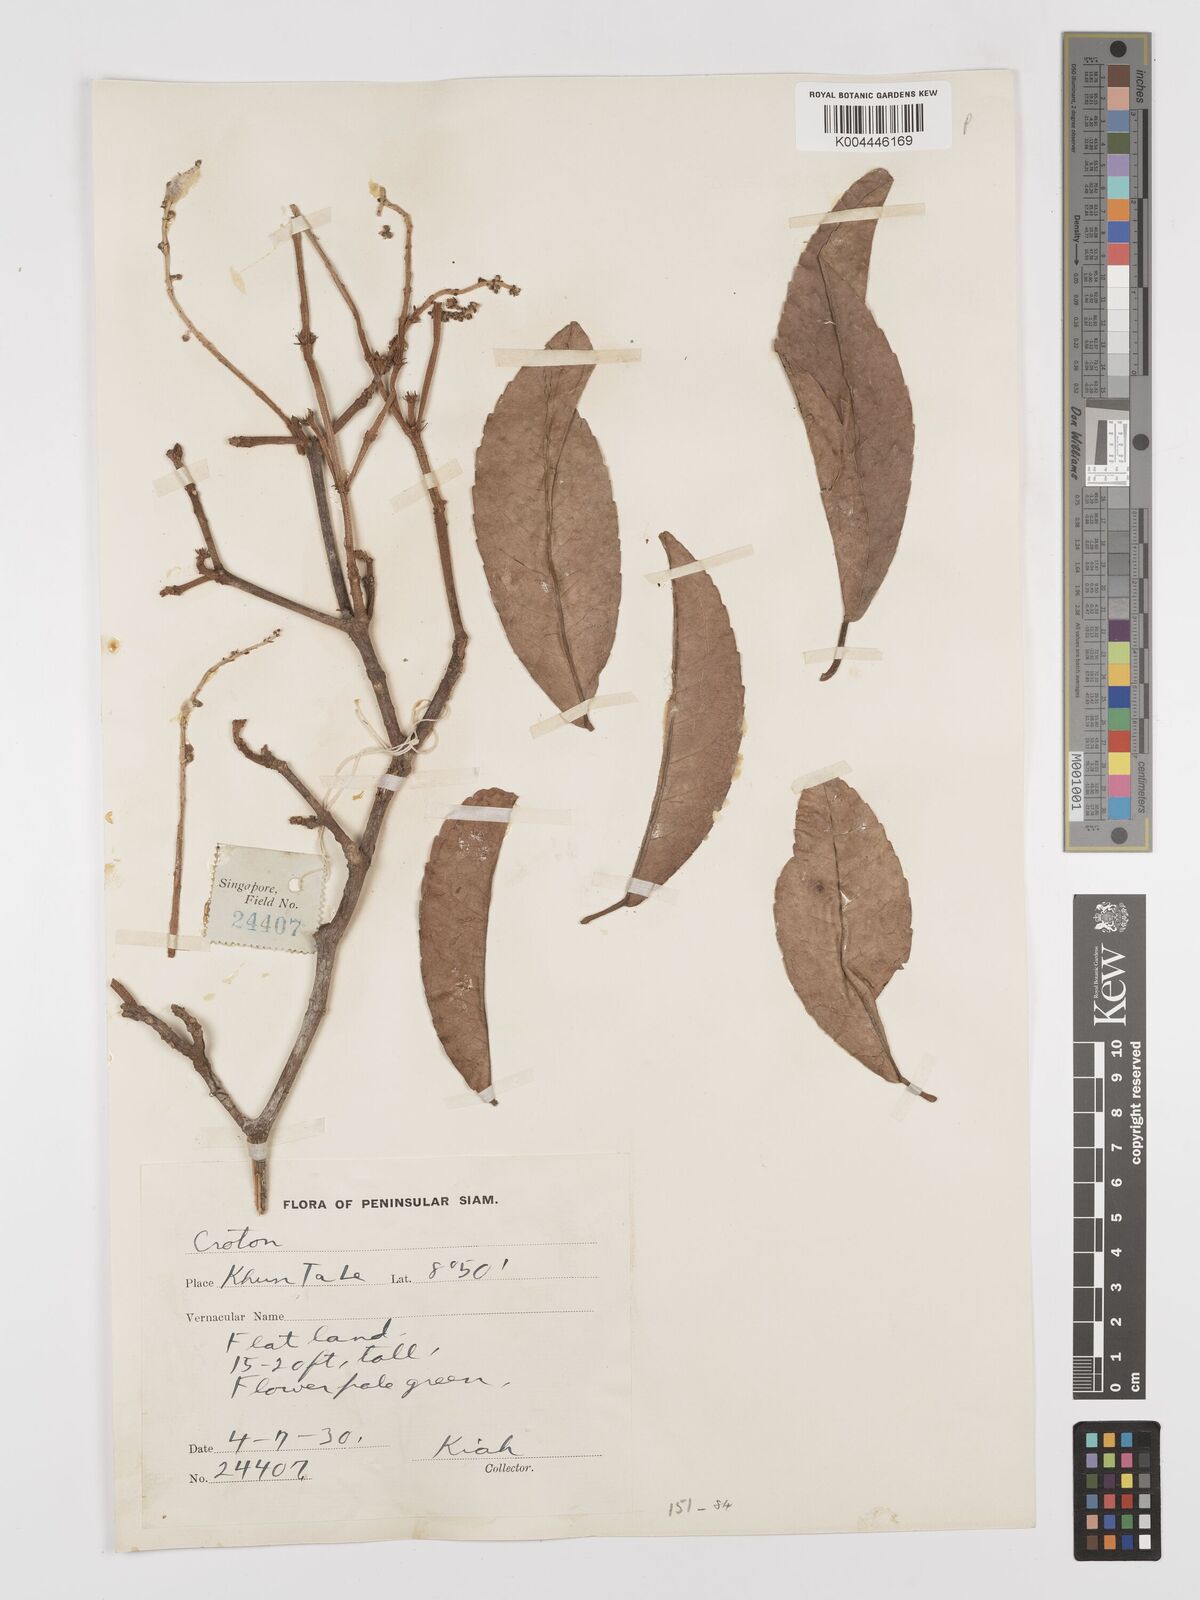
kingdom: Plantae
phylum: Tracheophyta
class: Magnoliopsida
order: Malpighiales
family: Euphorbiaceae
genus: Croton
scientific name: Croton delpyi
